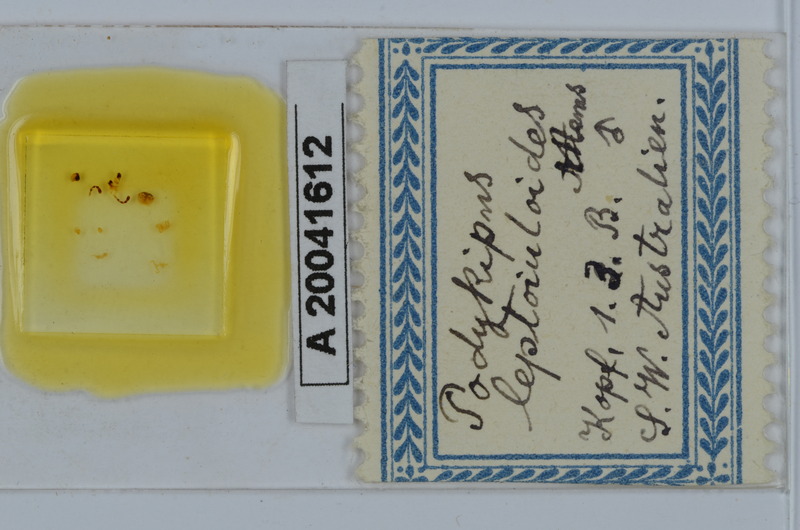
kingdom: Animalia
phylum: Arthropoda
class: Diplopoda
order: Spirostreptida
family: Iulomorphidae
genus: Podykipus
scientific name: Podykipus leptoiuloides
